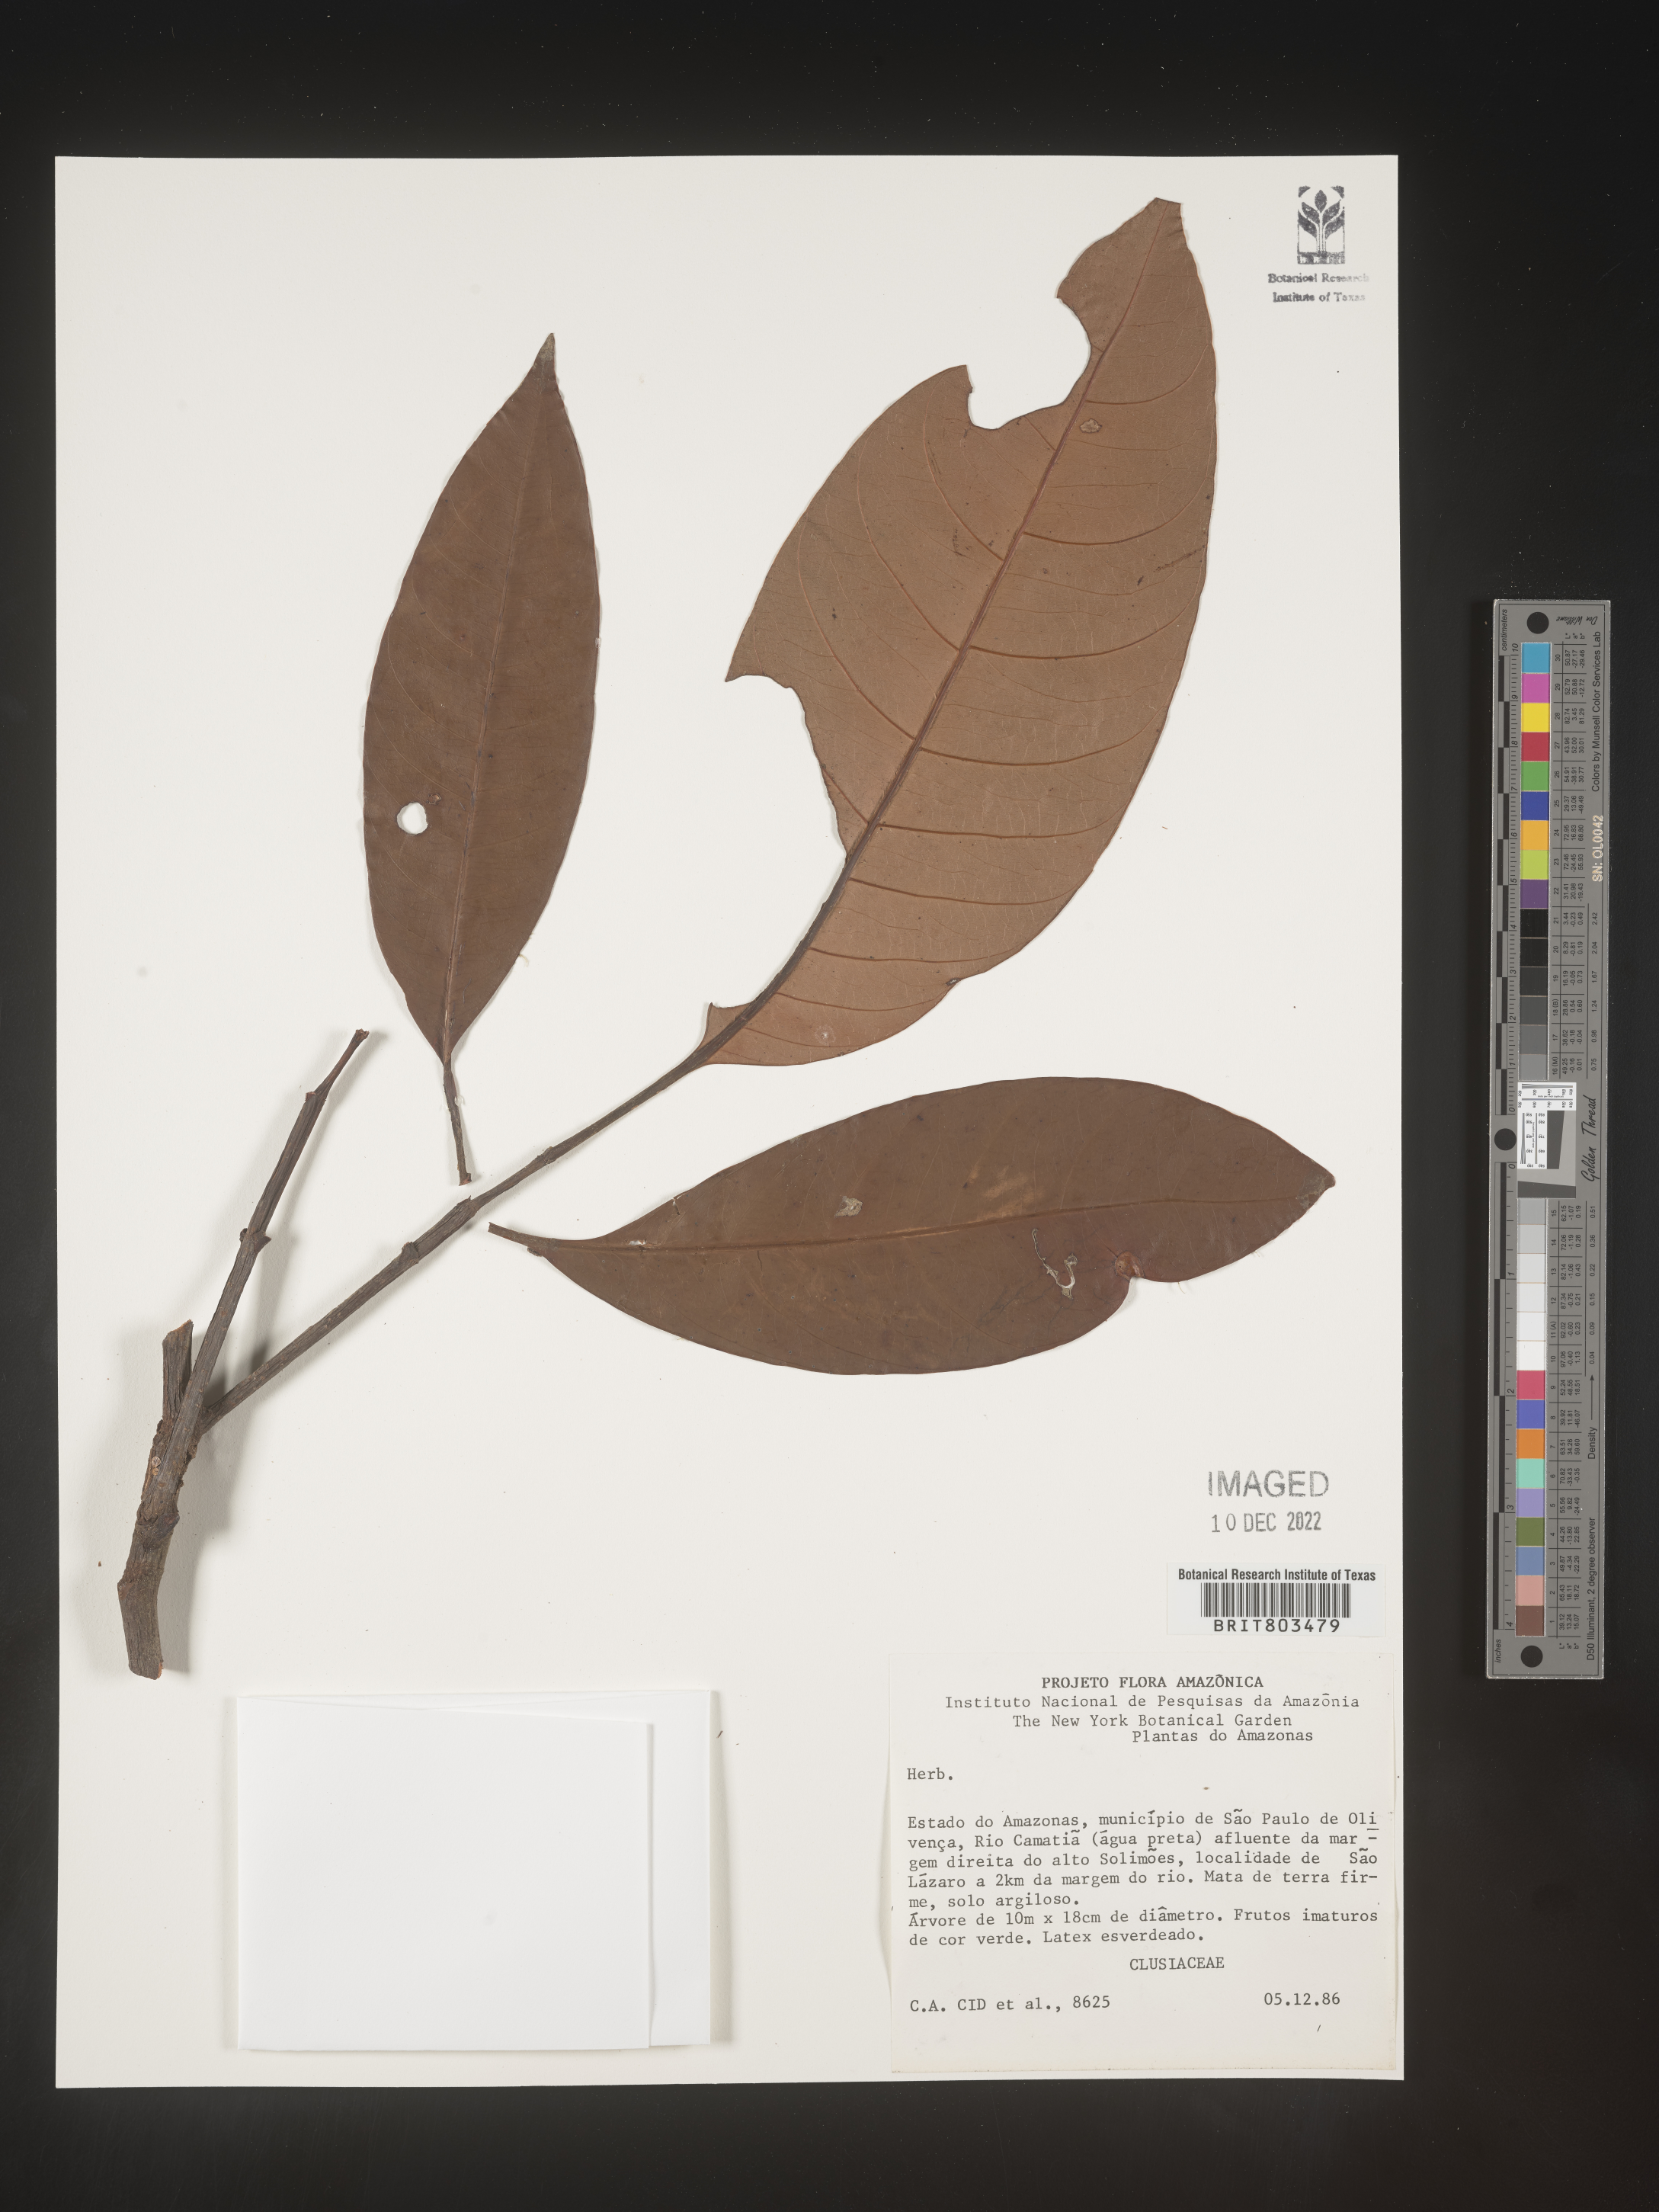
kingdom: Plantae
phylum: Tracheophyta
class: Magnoliopsida
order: Malpighiales
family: Clusiaceae
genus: Tovomita
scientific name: Tovomita
